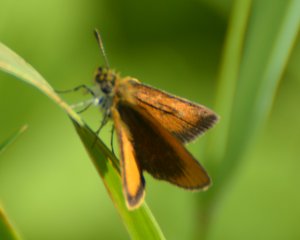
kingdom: Animalia
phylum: Arthropoda
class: Insecta
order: Lepidoptera
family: Hesperiidae
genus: Ancyloxypha
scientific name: Ancyloxypha numitor
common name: Least Skipper
